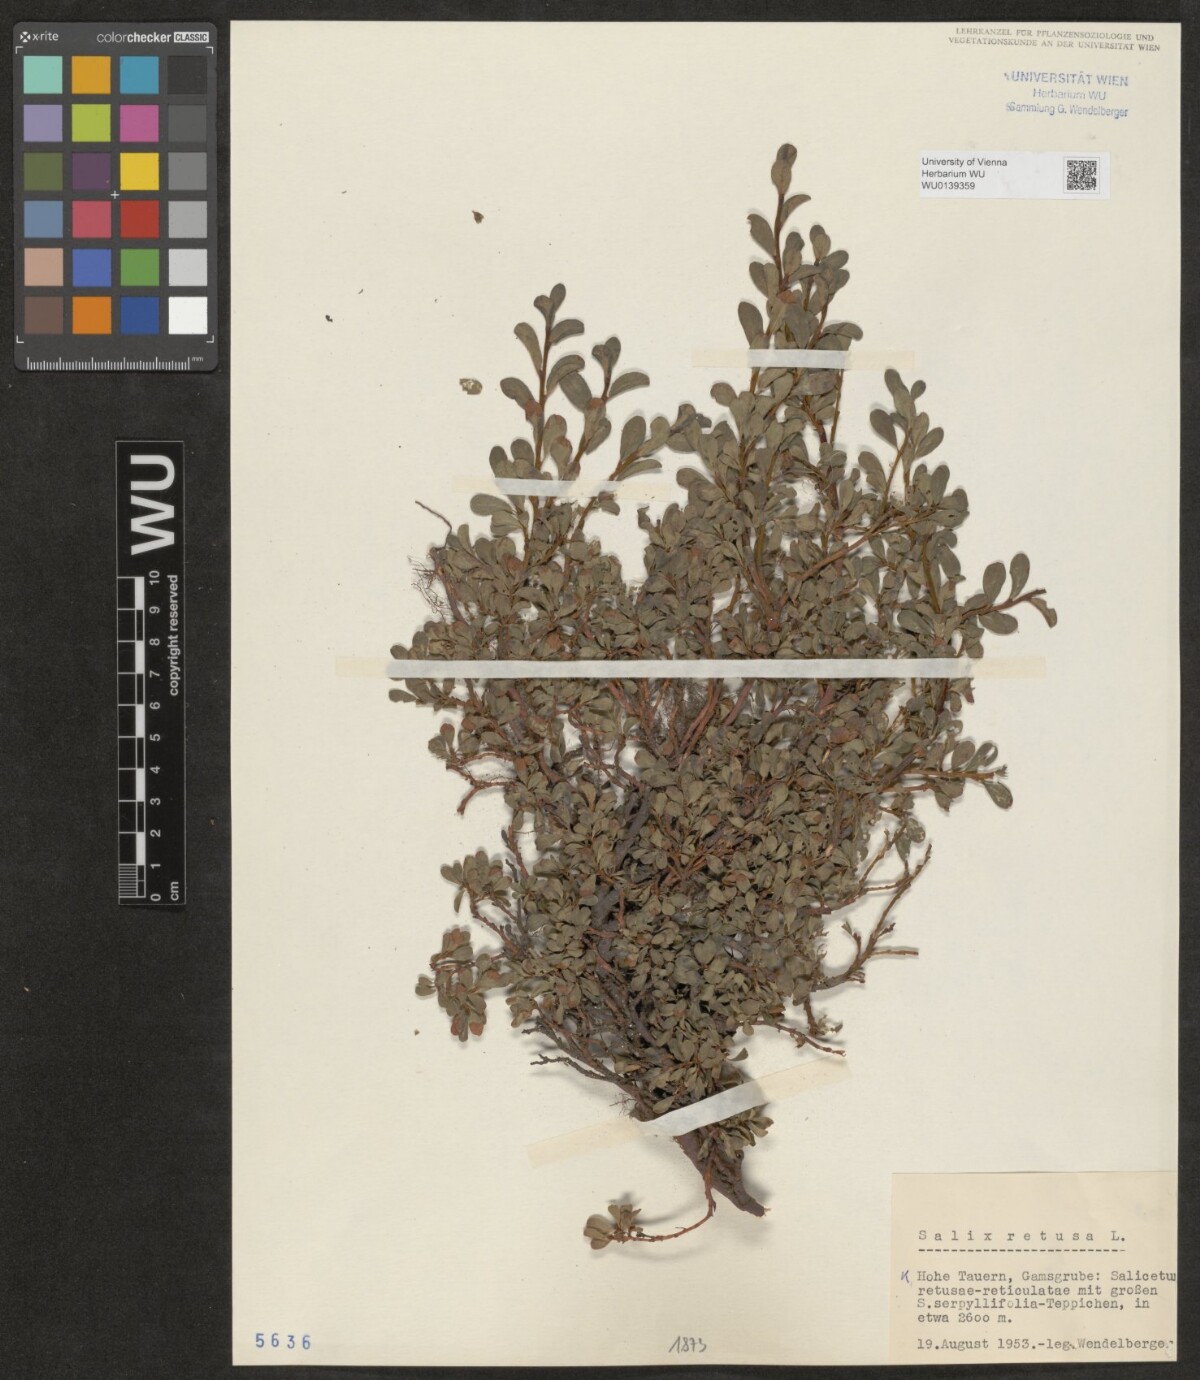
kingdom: Plantae
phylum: Tracheophyta
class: Magnoliopsida
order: Malpighiales
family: Salicaceae
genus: Salix
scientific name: Salix retusa
